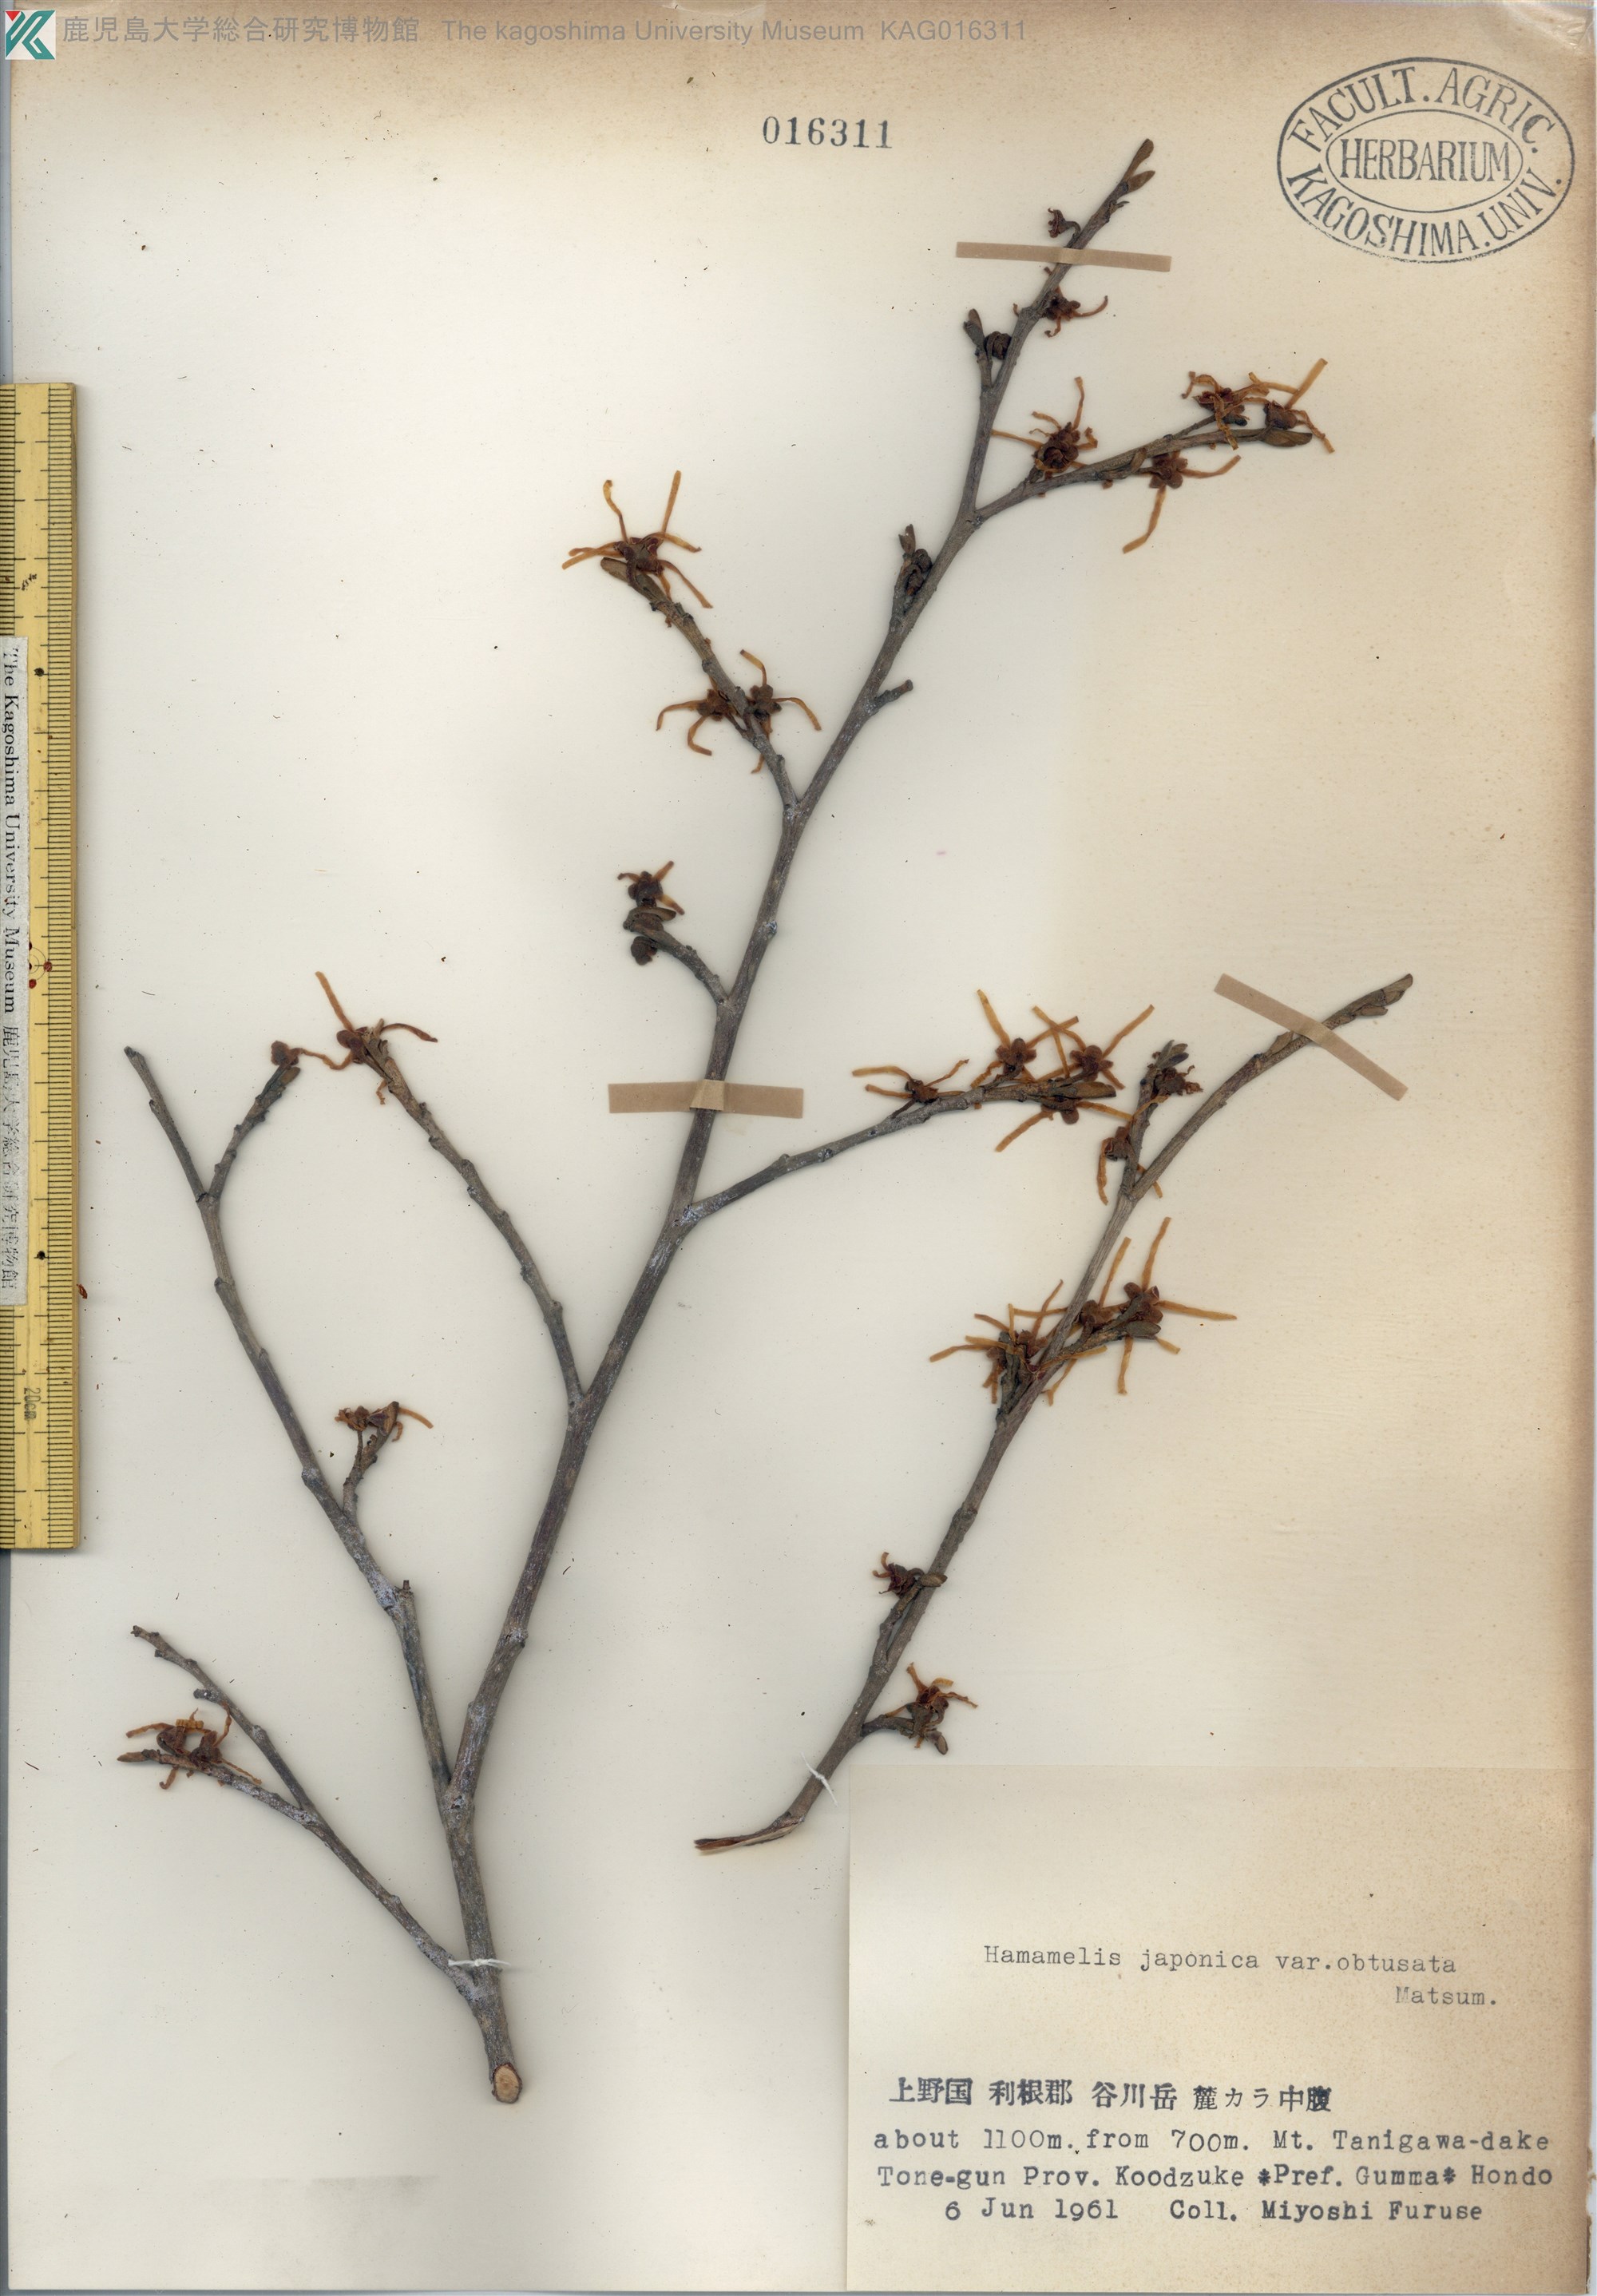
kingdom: Plantae
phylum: Tracheophyta
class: Magnoliopsida
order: Saxifragales
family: Hamamelidaceae
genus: Hamamelis
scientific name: Hamamelis japonica
